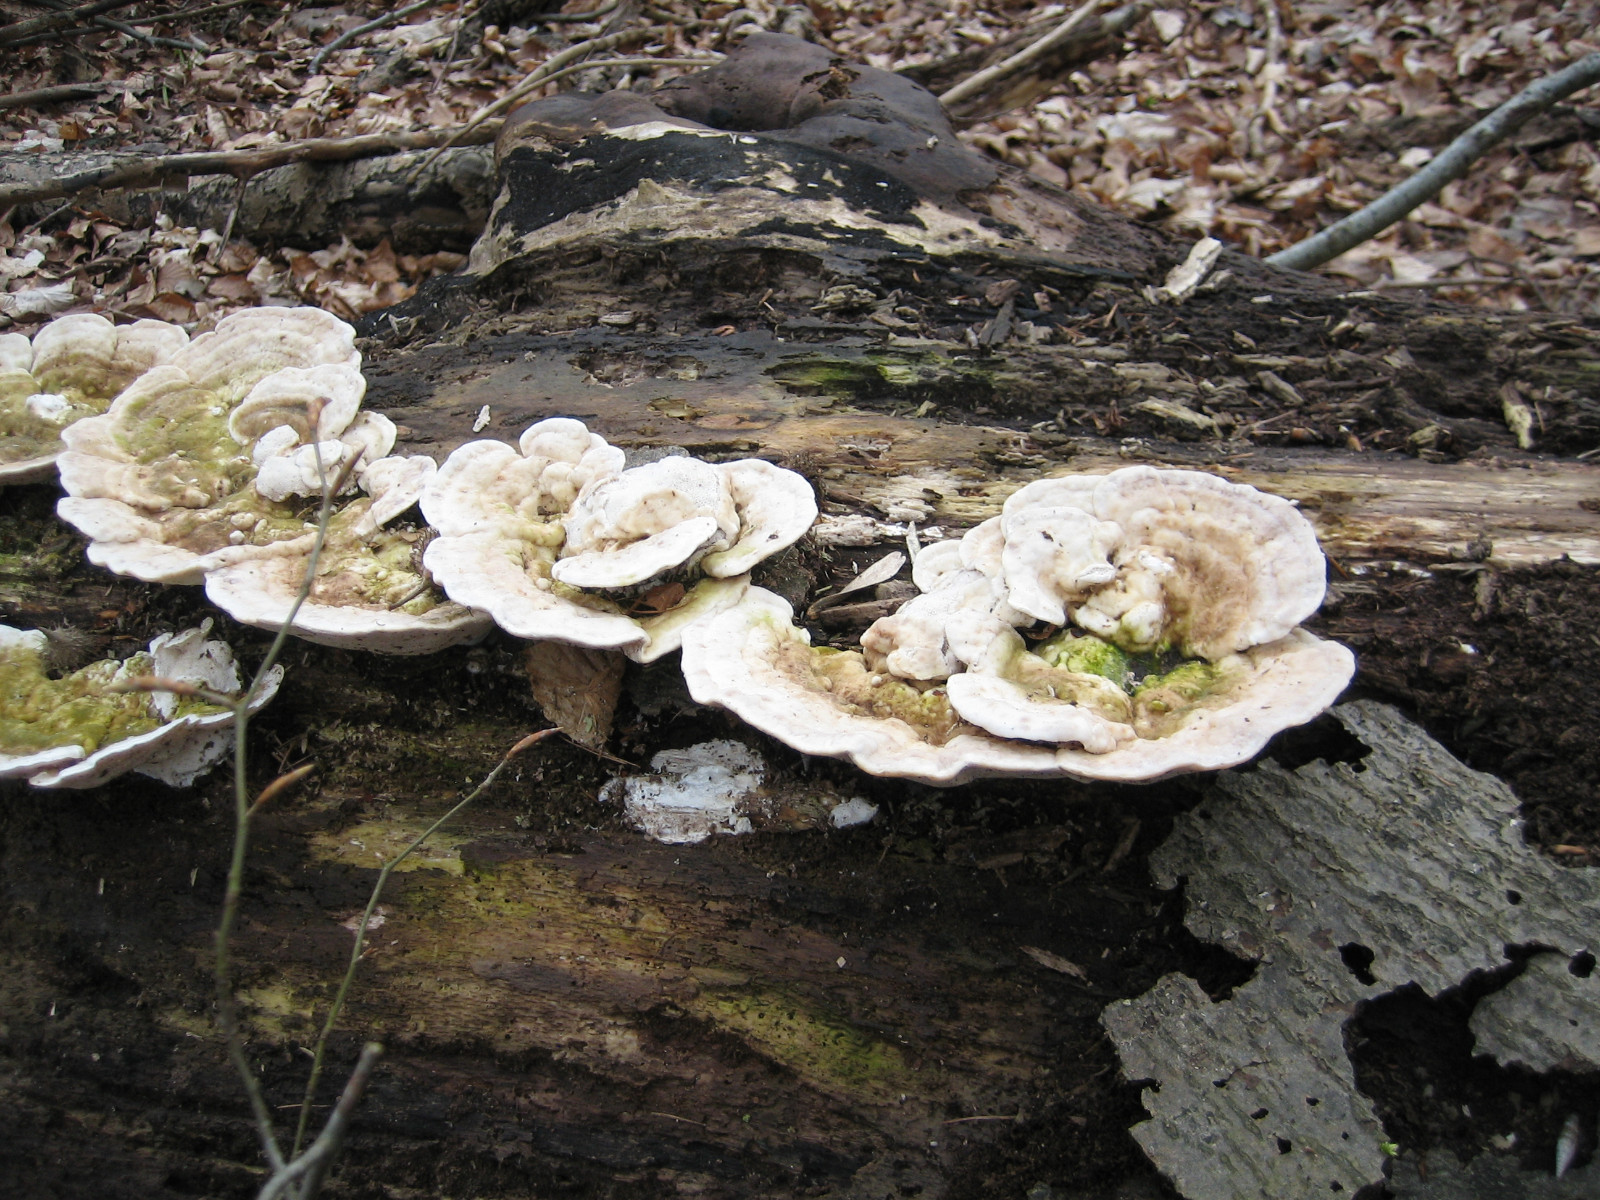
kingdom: Fungi
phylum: Basidiomycota
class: Agaricomycetes
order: Polyporales
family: Polyporaceae
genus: Trametes
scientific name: Trametes gibbosa
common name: puklet læderporesvamp
